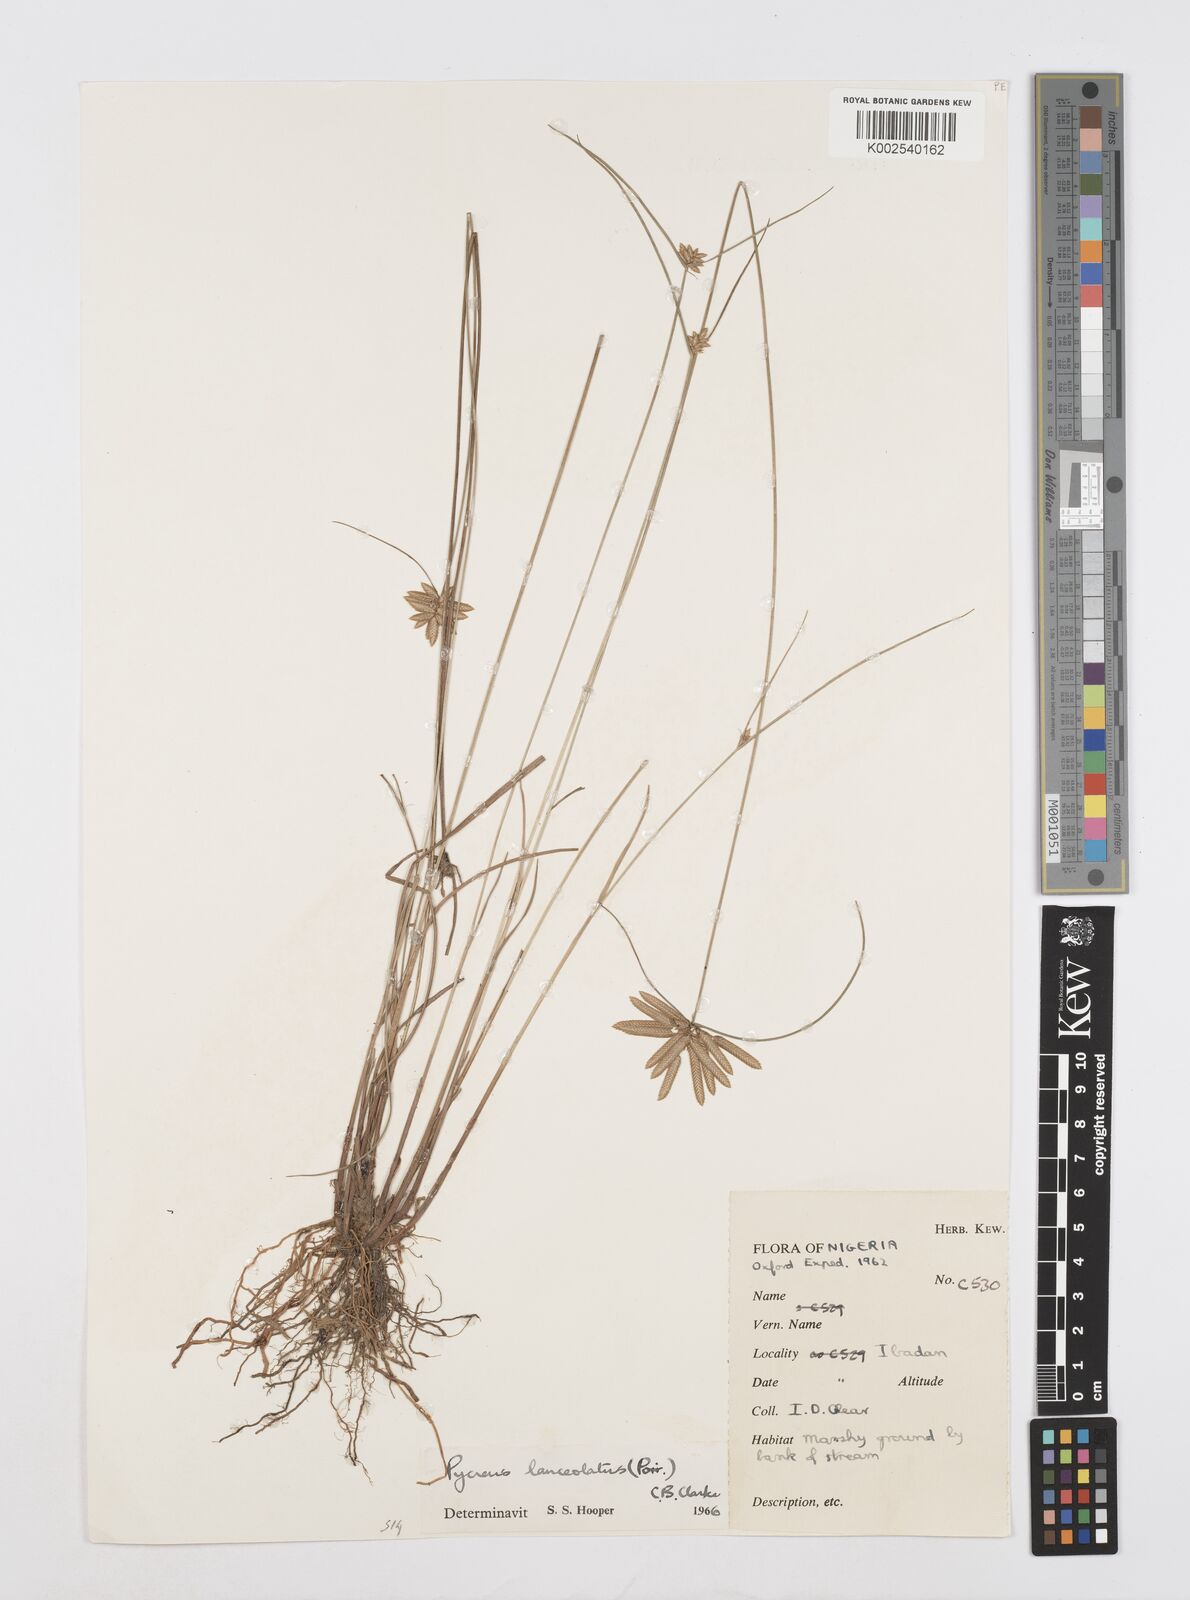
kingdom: Plantae
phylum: Tracheophyta
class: Liliopsida
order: Poales
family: Cyperaceae
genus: Cyperus
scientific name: Cyperus
